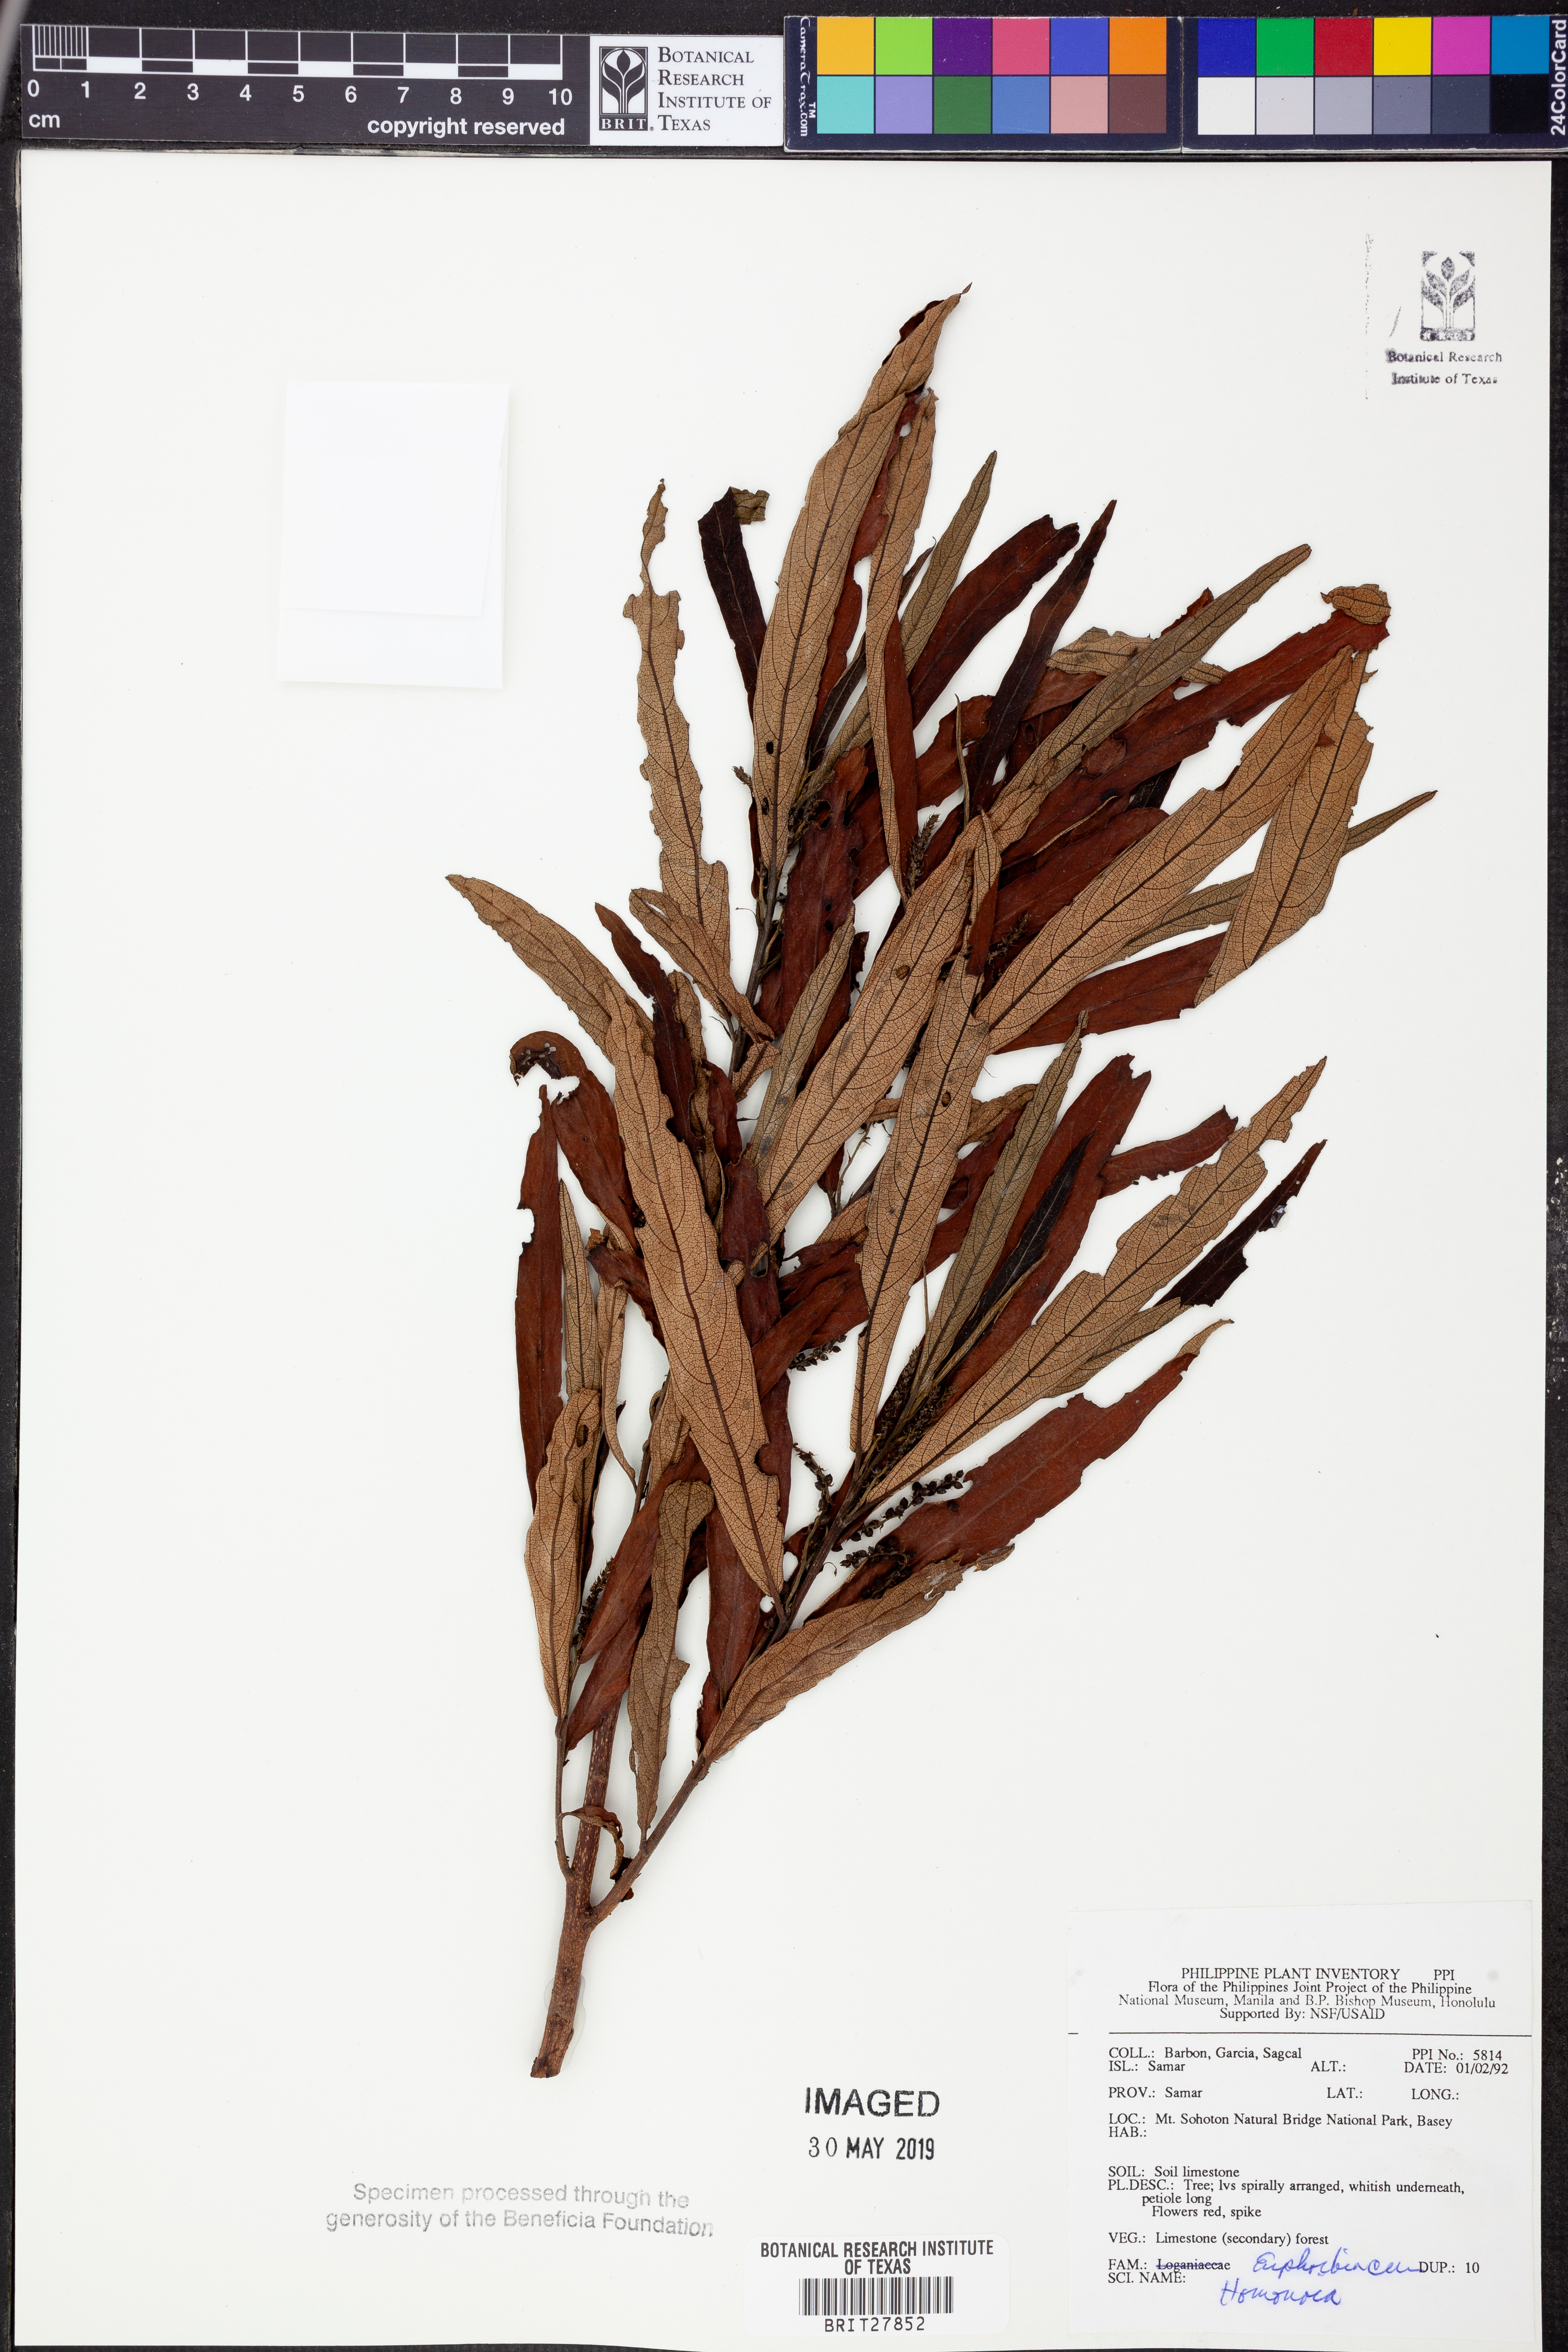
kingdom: Plantae
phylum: Tracheophyta
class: Magnoliopsida
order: Malpighiales
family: Euphorbiaceae
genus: Homonoia
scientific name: Homonoia
